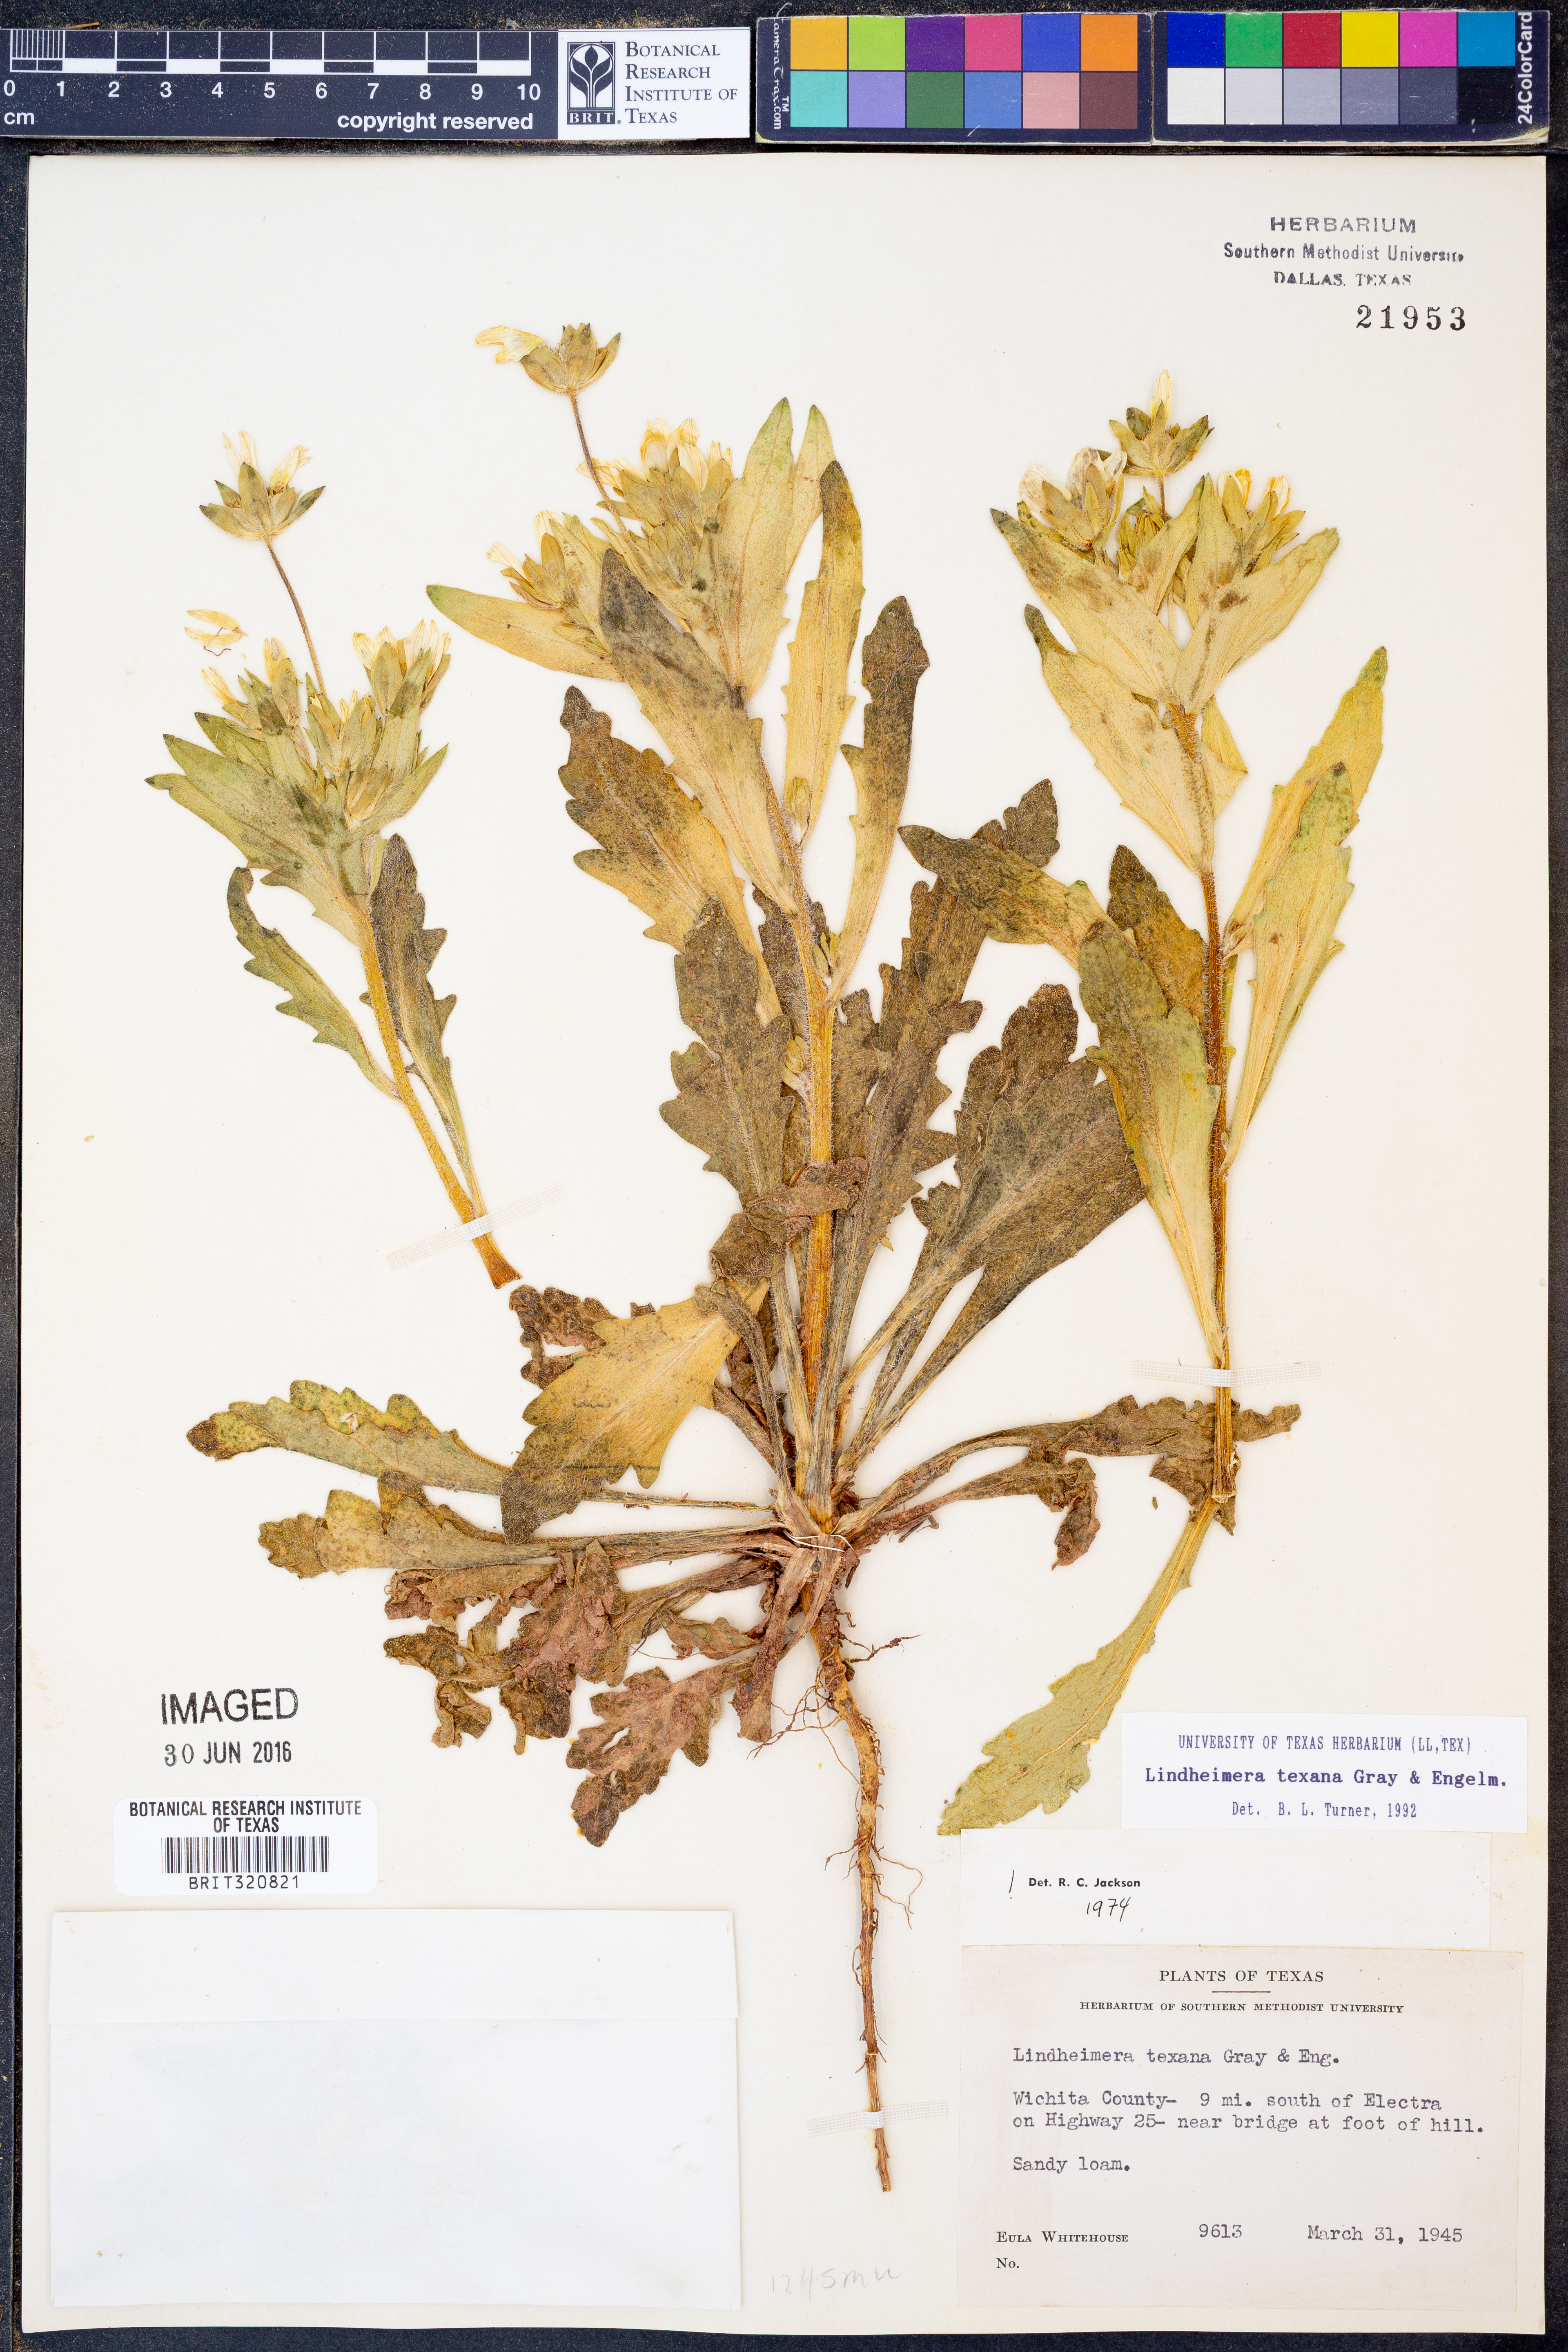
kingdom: Plantae
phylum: Tracheophyta
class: Magnoliopsida
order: Asterales
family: Asteraceae
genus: Lindheimera
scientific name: Lindheimera texana
